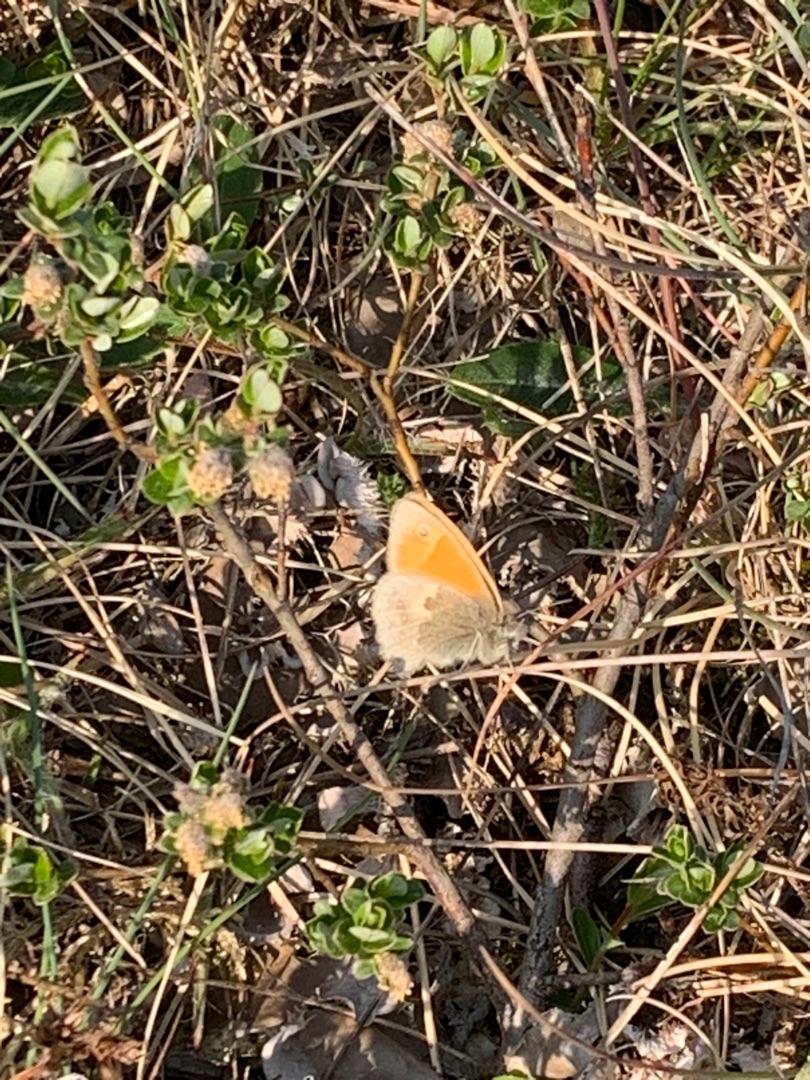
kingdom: Animalia
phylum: Arthropoda
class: Insecta
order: Lepidoptera
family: Nymphalidae
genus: Coenonympha
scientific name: Coenonympha pamphilus
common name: Okkergul randøje
